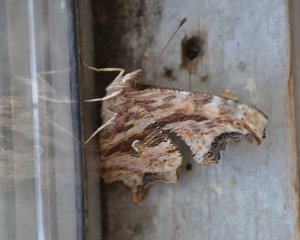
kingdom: Animalia
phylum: Arthropoda
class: Insecta
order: Lepidoptera
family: Nymphalidae
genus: Polygonia
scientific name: Polygonia satyrus
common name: Satyr Comma
